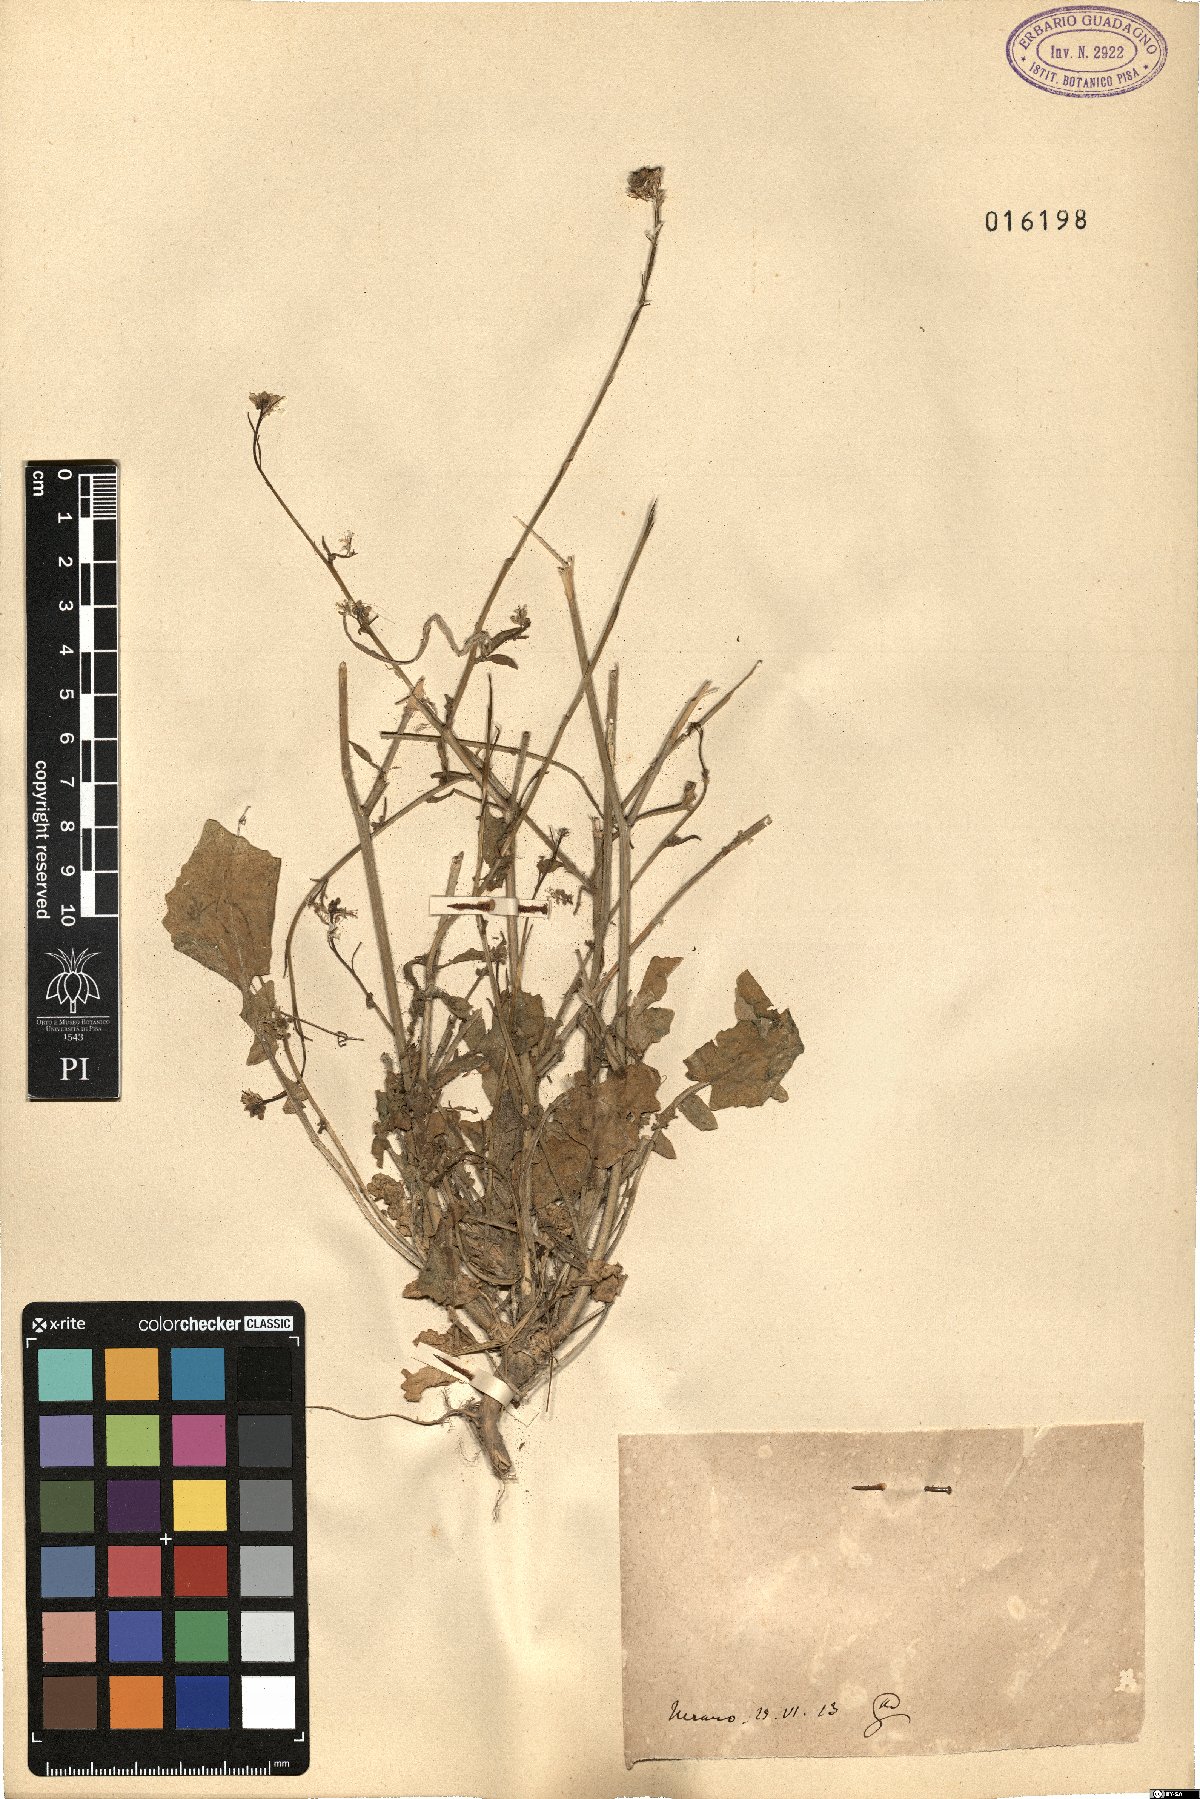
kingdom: Plantae
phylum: Tracheophyta
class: Magnoliopsida
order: Brassicales
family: Brassicaceae
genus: Brassica
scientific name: Brassica
